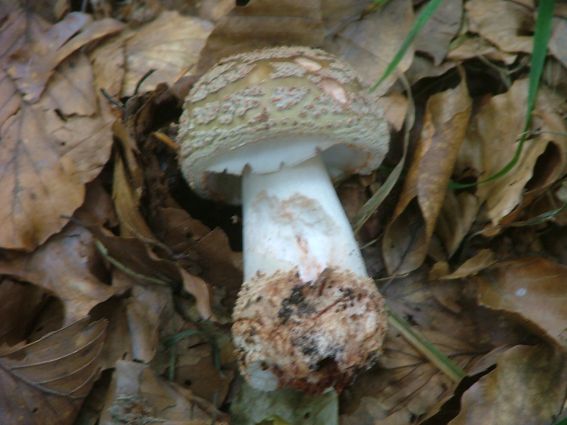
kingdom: Fungi
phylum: Basidiomycota
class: Agaricomycetes
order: Agaricales
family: Amanitaceae
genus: Amanita
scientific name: Amanita rubescens
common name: rødmende fluesvamp
